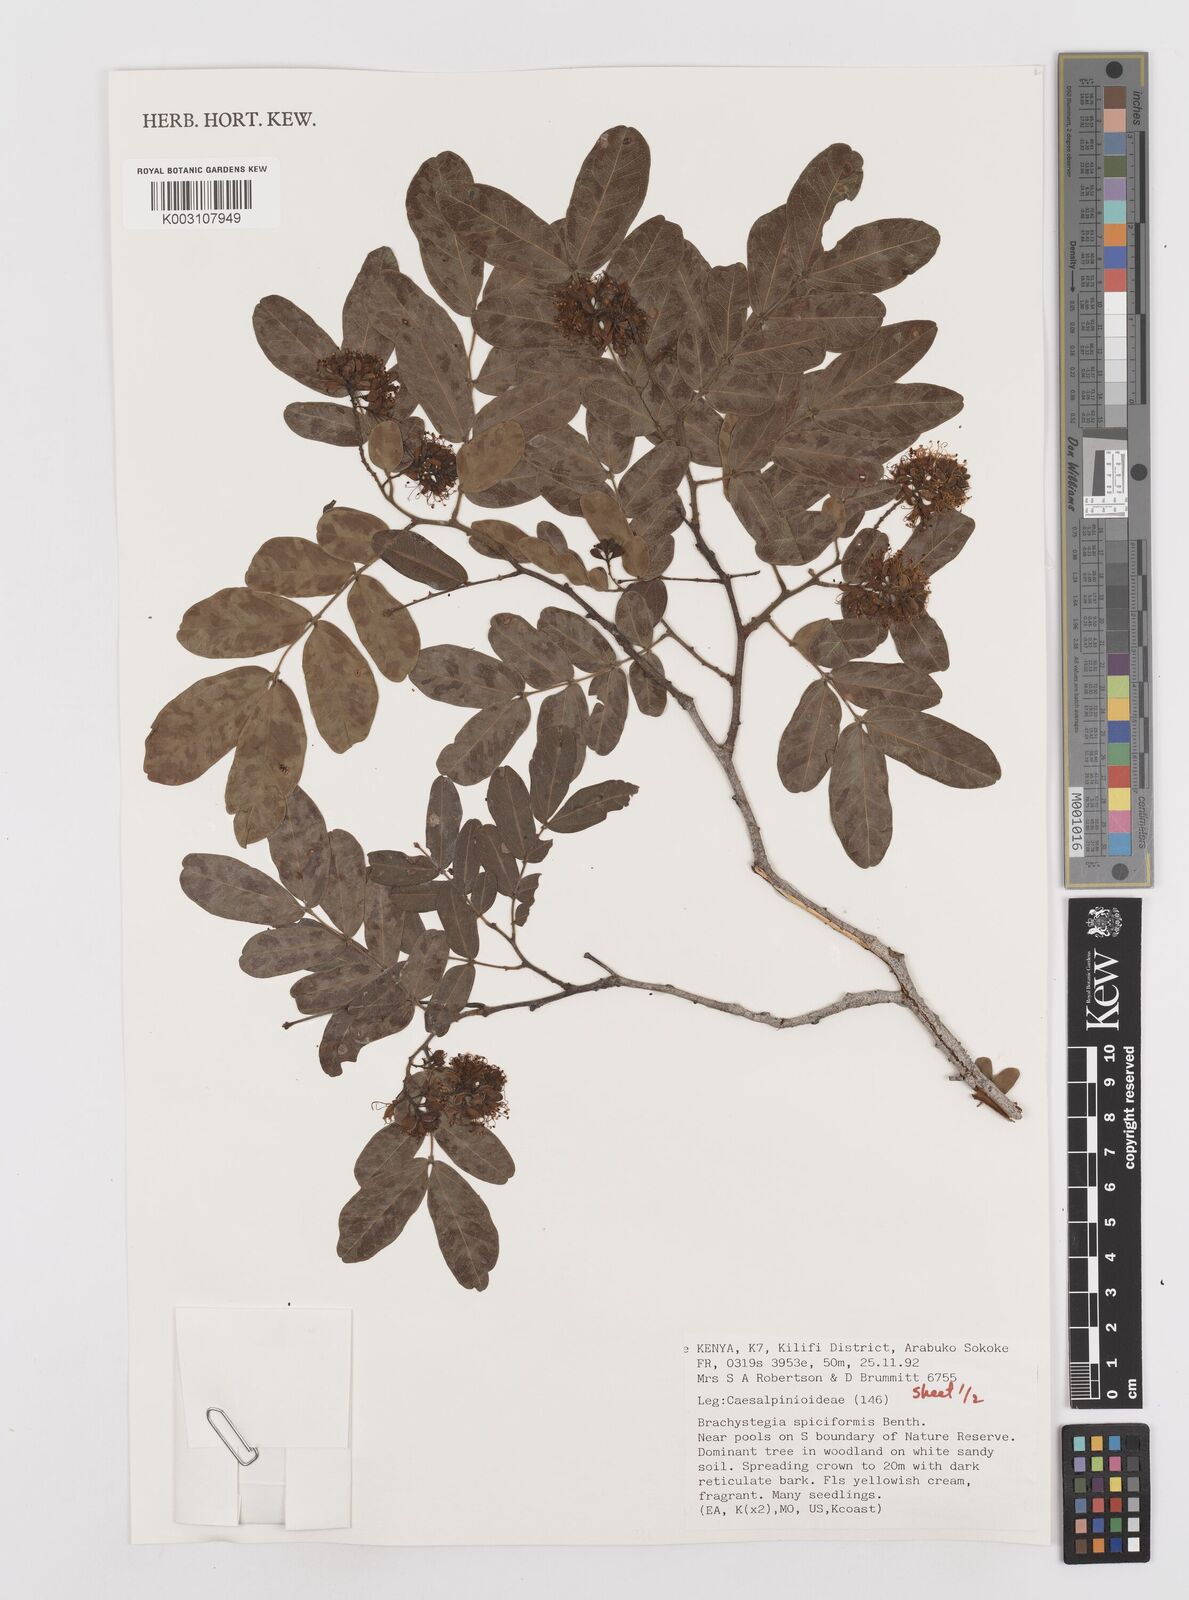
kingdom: Plantae
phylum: Tracheophyta
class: Magnoliopsida
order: Fabales
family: Fabaceae
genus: Brachystegia
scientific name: Brachystegia spiciformis
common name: Zebrawood
